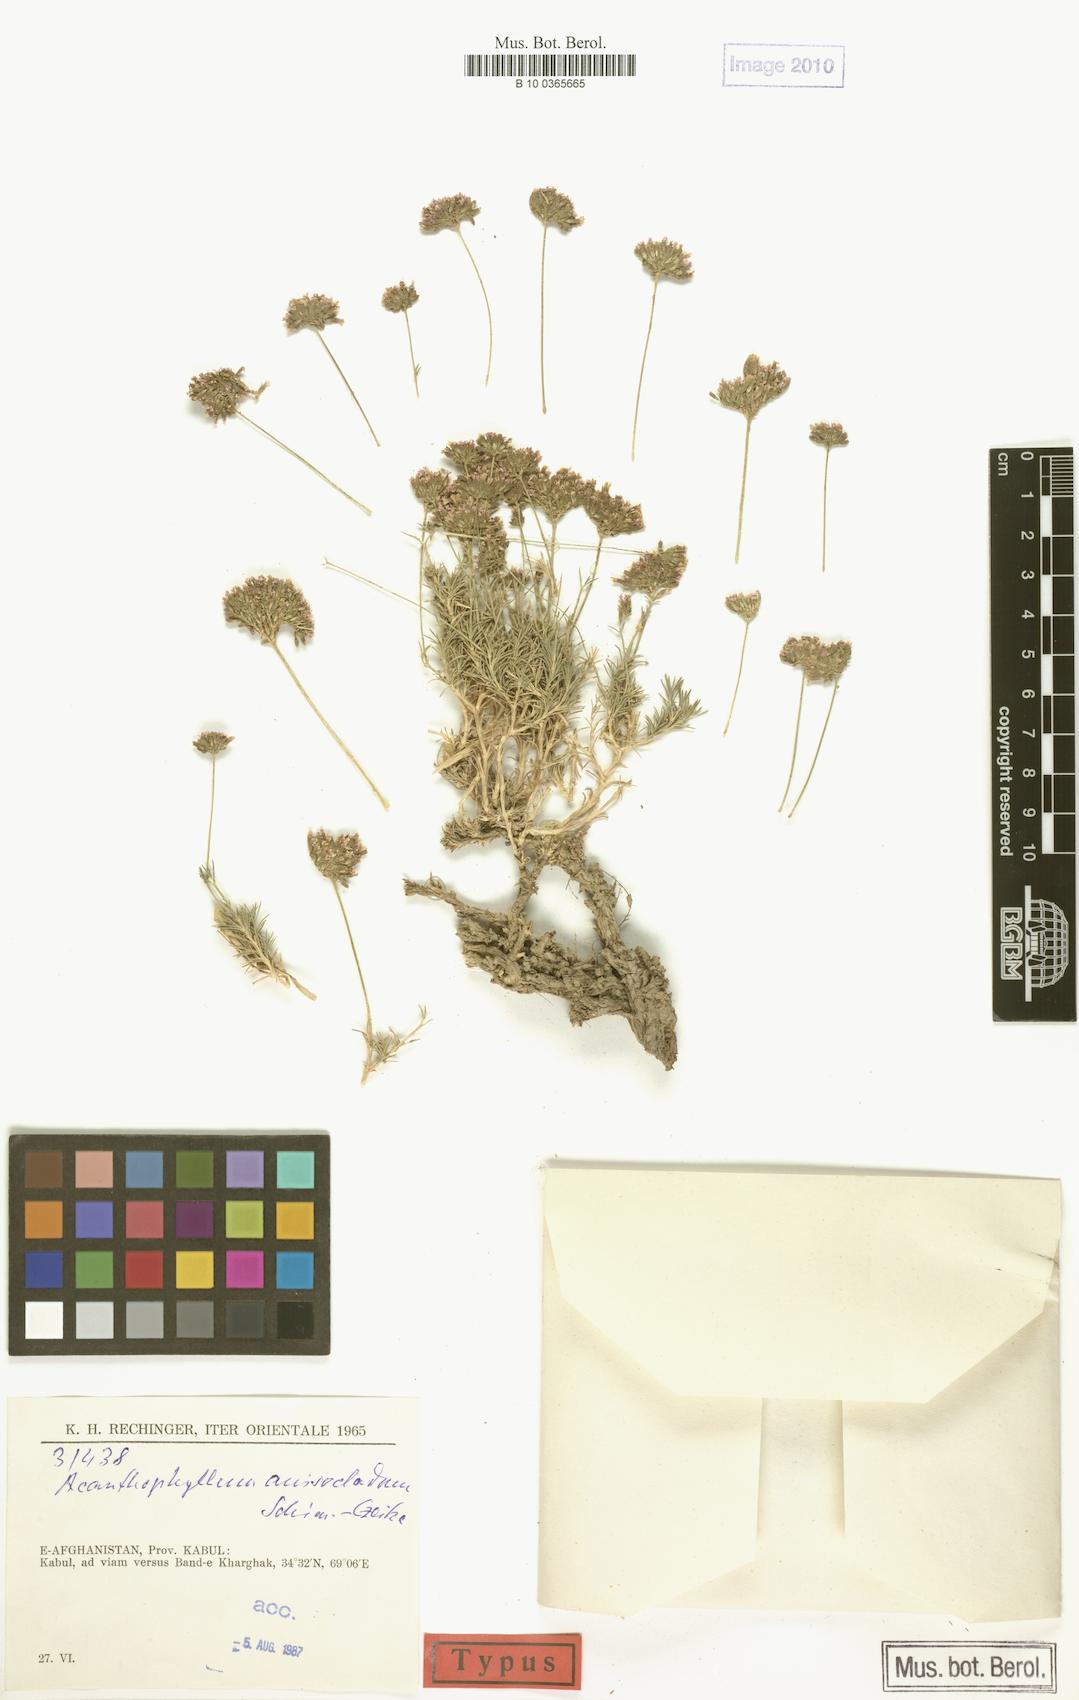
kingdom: Plantae
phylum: Tracheophyta
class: Magnoliopsida
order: Caryophyllales
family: Caryophyllaceae
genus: Acanthophyllum
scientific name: Acanthophyllum andarabicum
